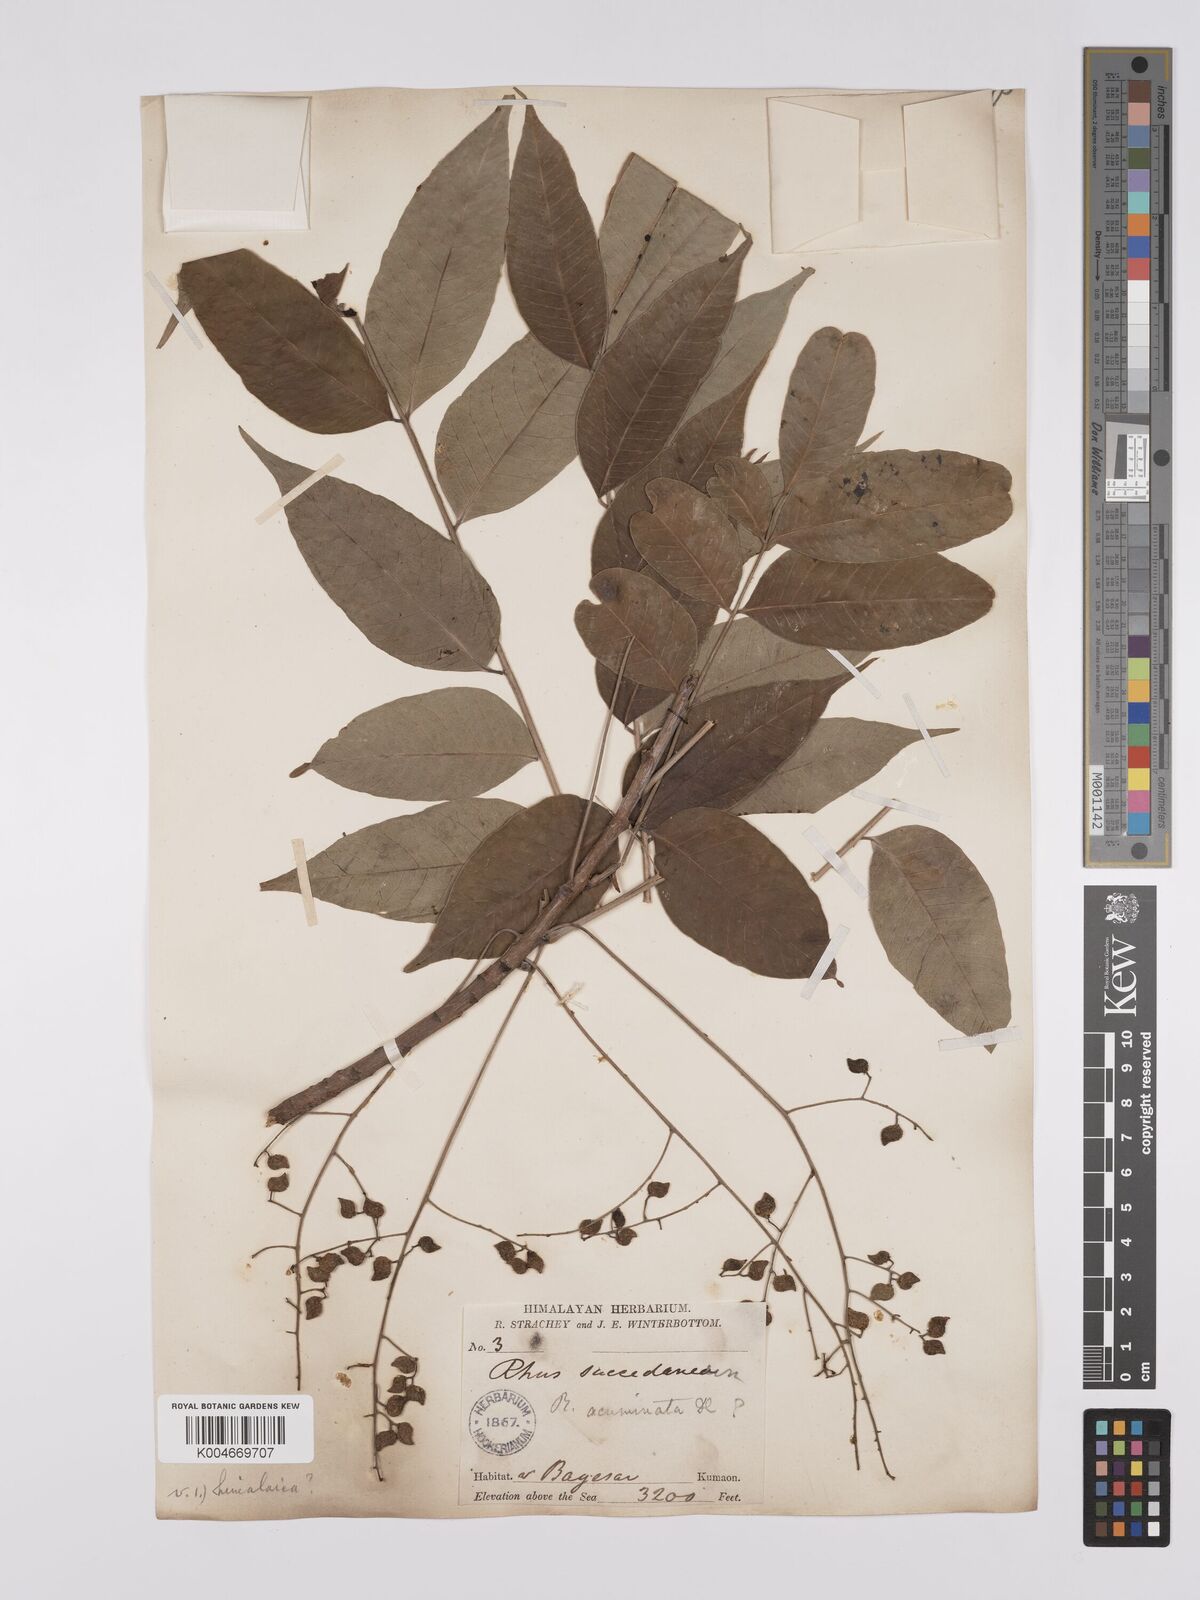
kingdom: Plantae
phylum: Tracheophyta
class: Magnoliopsida
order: Sapindales
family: Anacardiaceae
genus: Toxicodendron
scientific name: Toxicodendron succedaneum
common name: Wax tree
